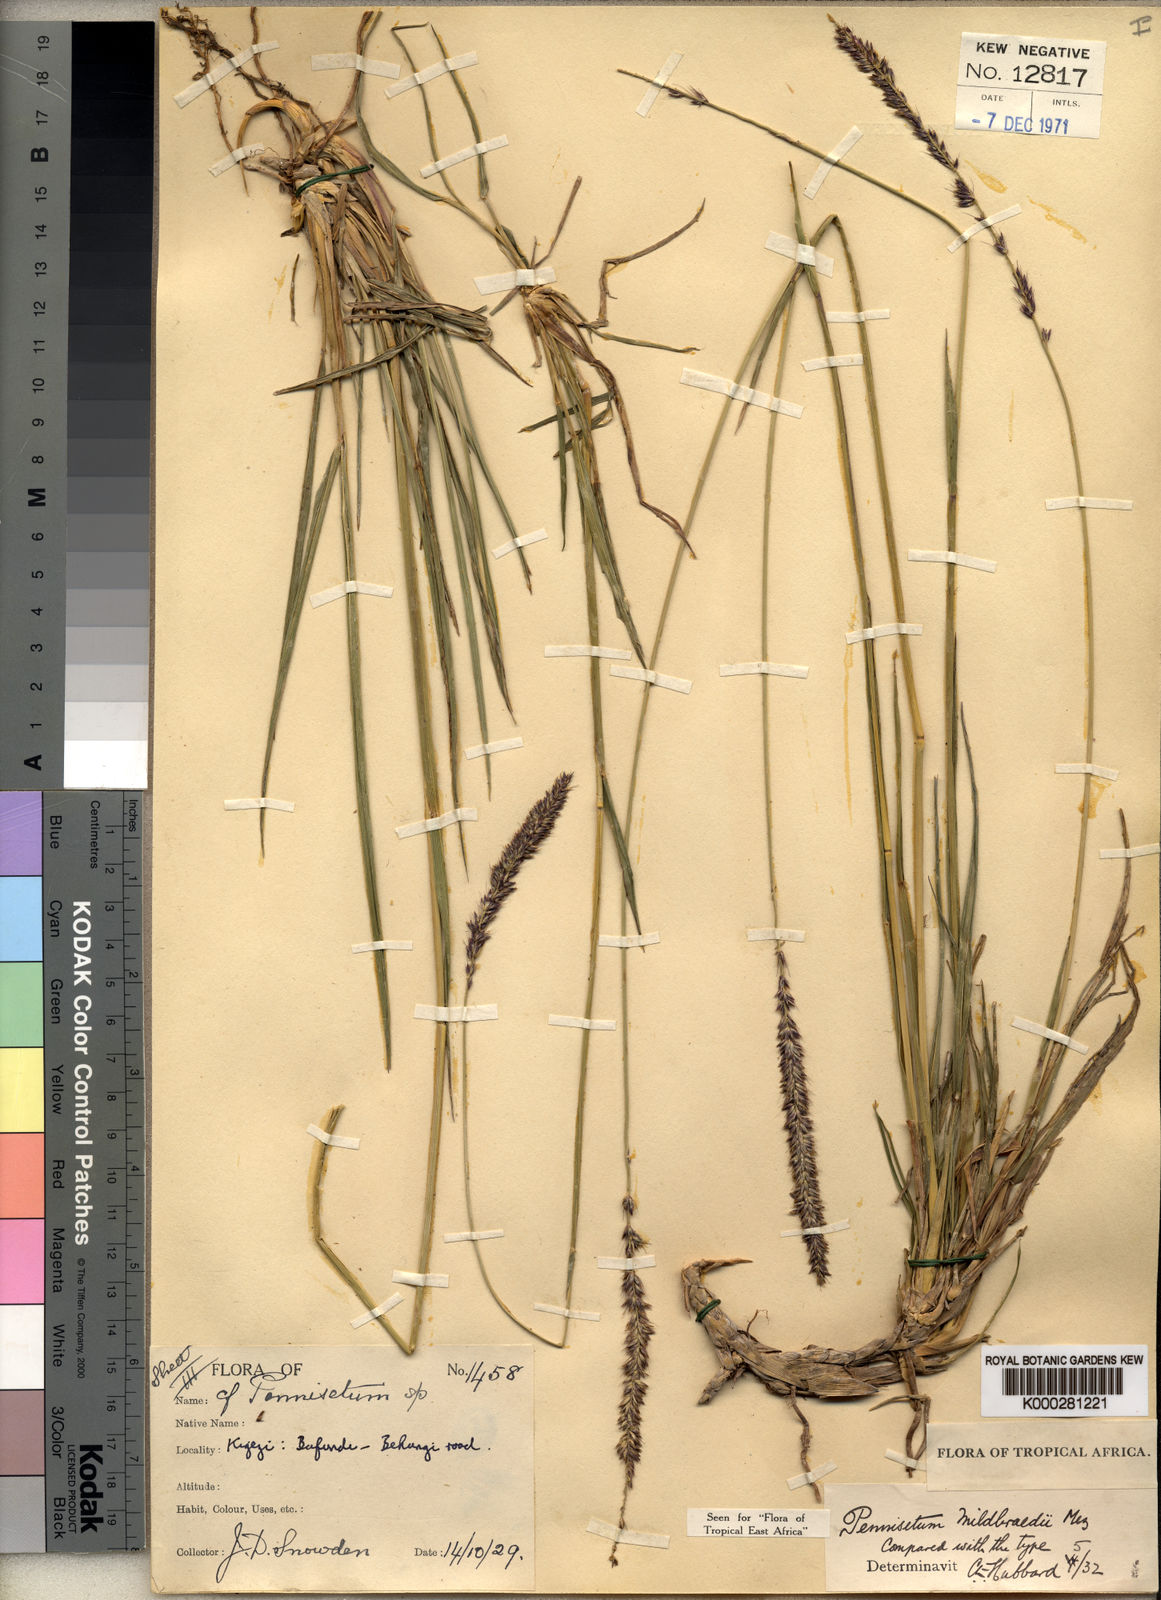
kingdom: Plantae
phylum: Tracheophyta
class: Liliopsida
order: Poales
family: Poaceae
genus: Cenchrus
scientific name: Cenchrus caudatus
